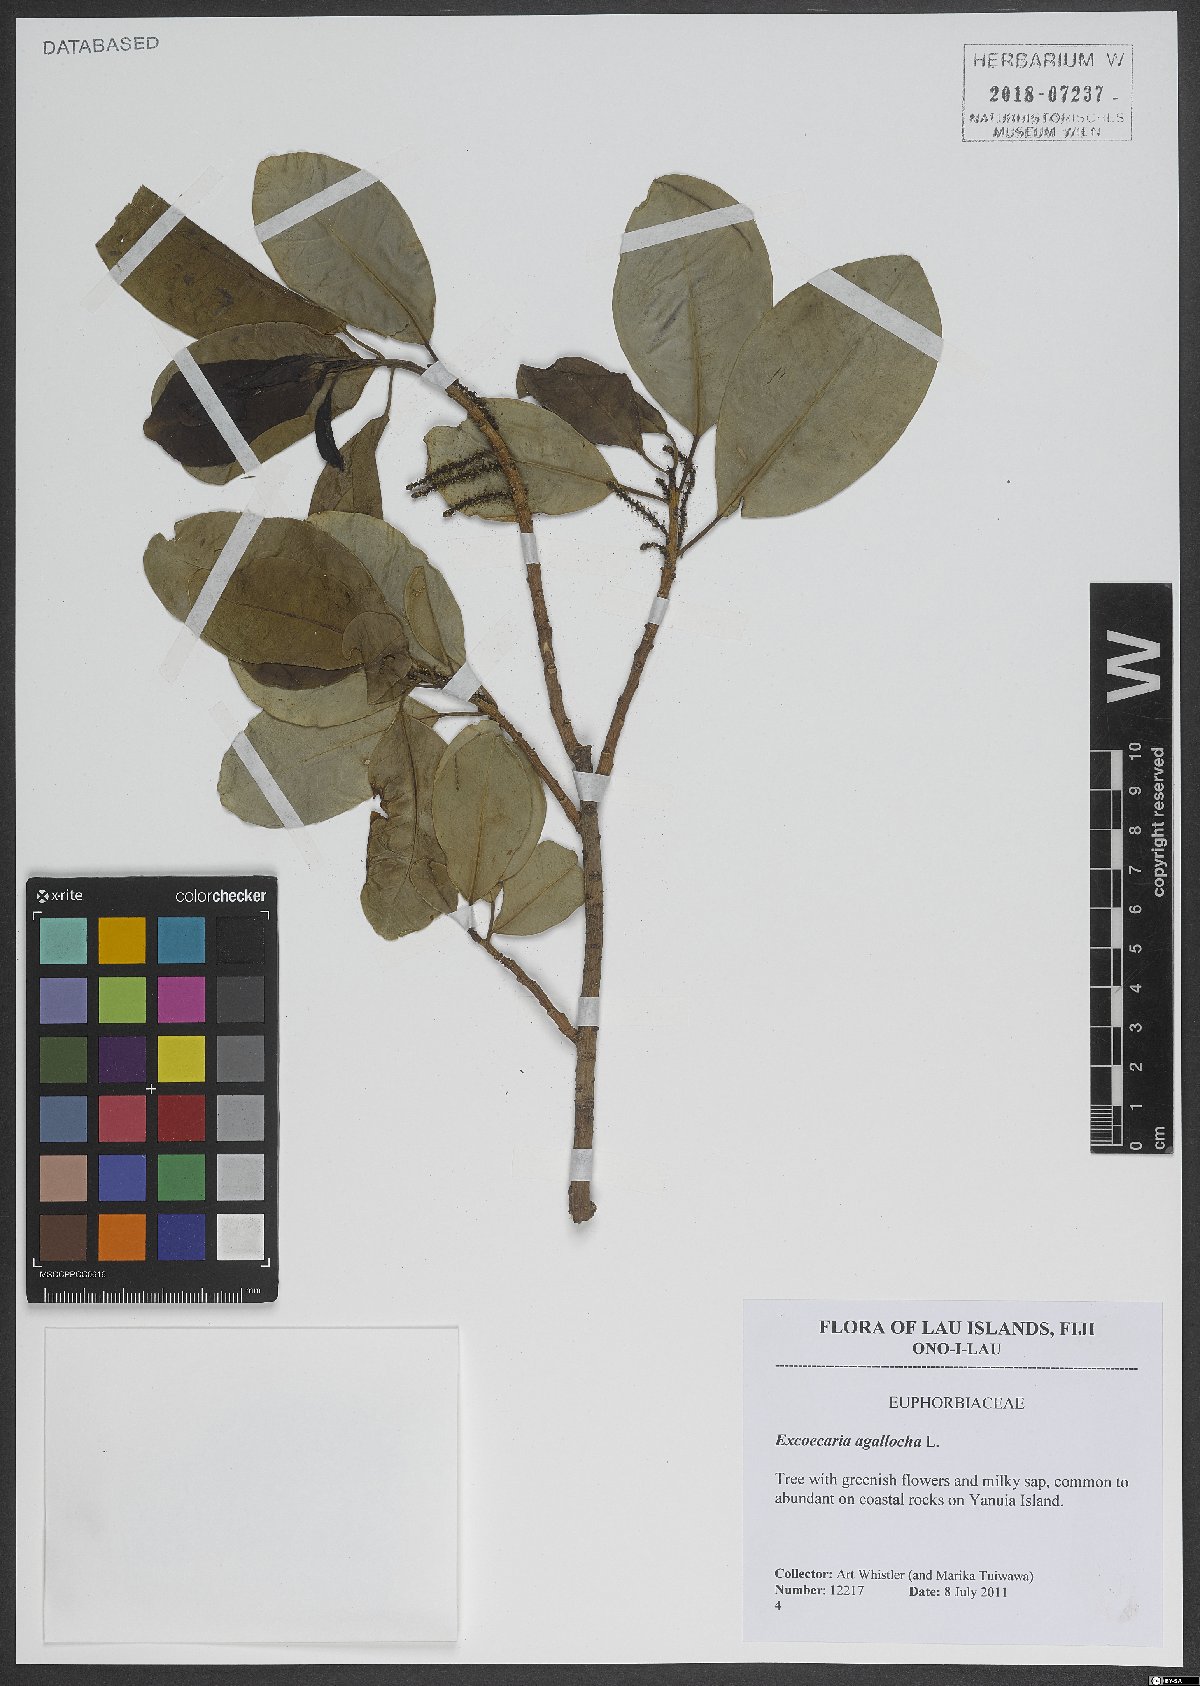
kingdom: Plantae
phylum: Tracheophyta
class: Magnoliopsida
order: Malpighiales
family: Euphorbiaceae
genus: Excoecaria
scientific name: Excoecaria agallocha
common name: River poisontree
